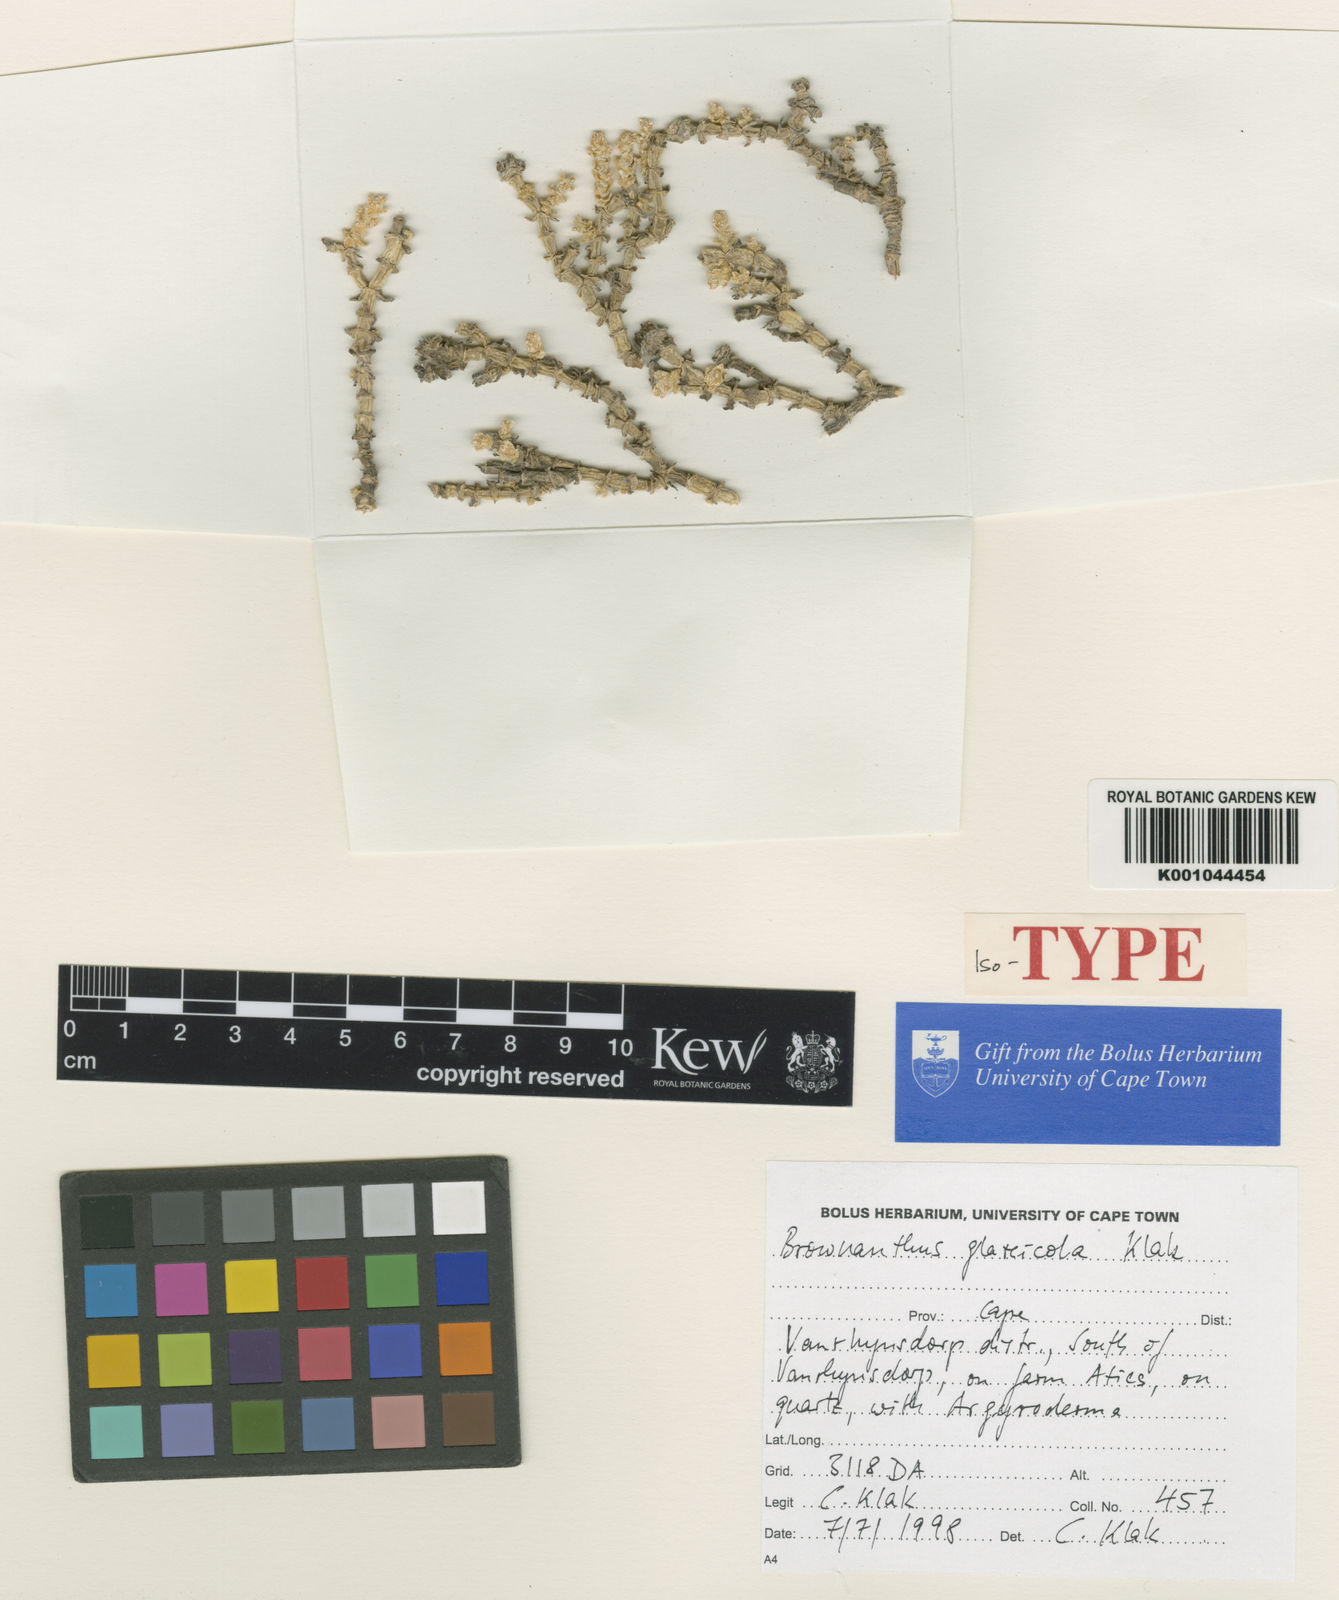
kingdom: Plantae
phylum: Tracheophyta
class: Magnoliopsida
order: Caryophyllales
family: Aizoaceae
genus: Mesembryanthemum
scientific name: Mesembryanthemum glareicola
